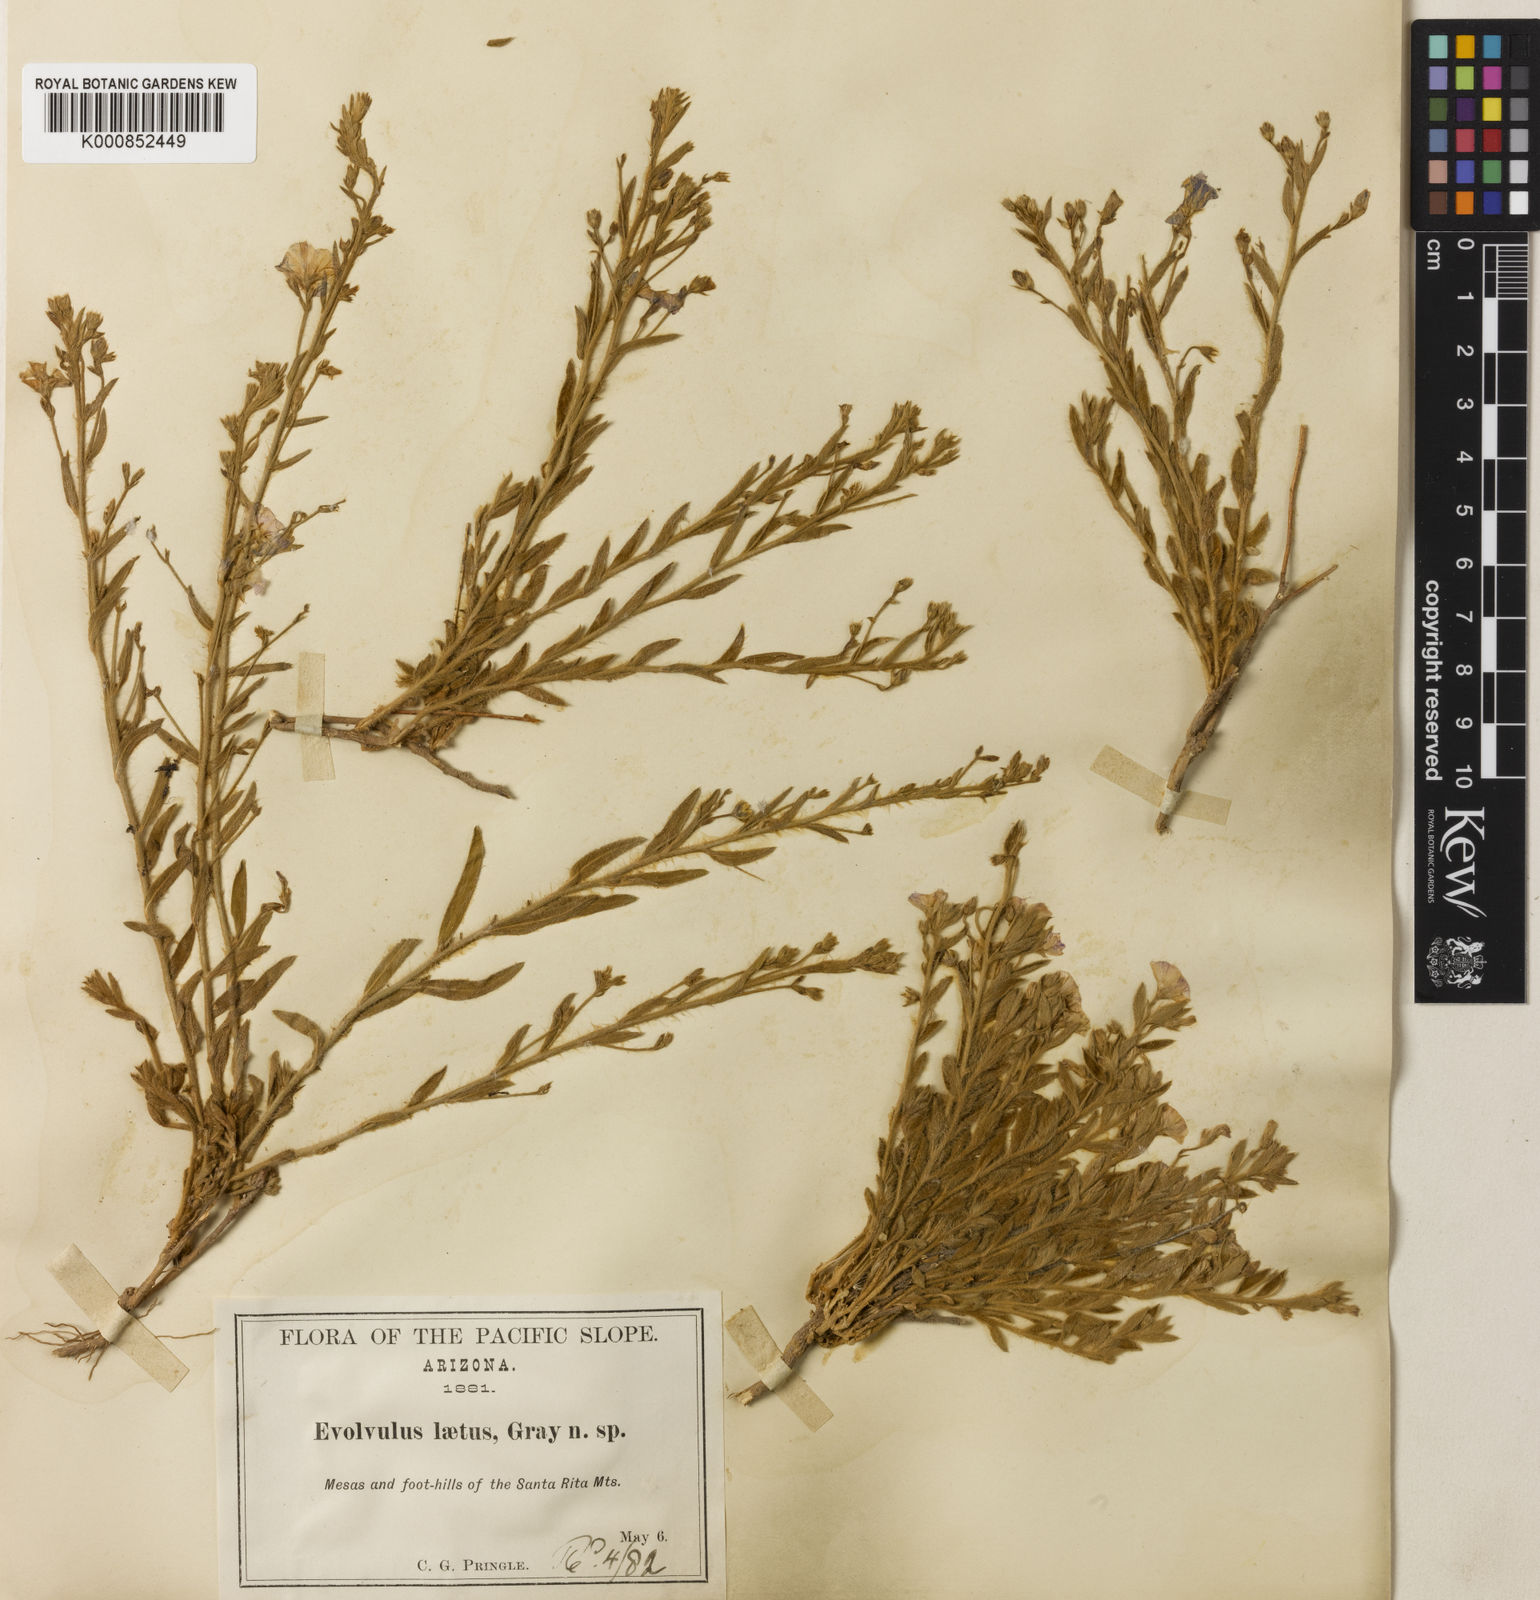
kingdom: Plantae
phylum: Tracheophyta
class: Magnoliopsida
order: Solanales
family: Convolvulaceae
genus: Evolvulus
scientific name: Evolvulus arizonicus
